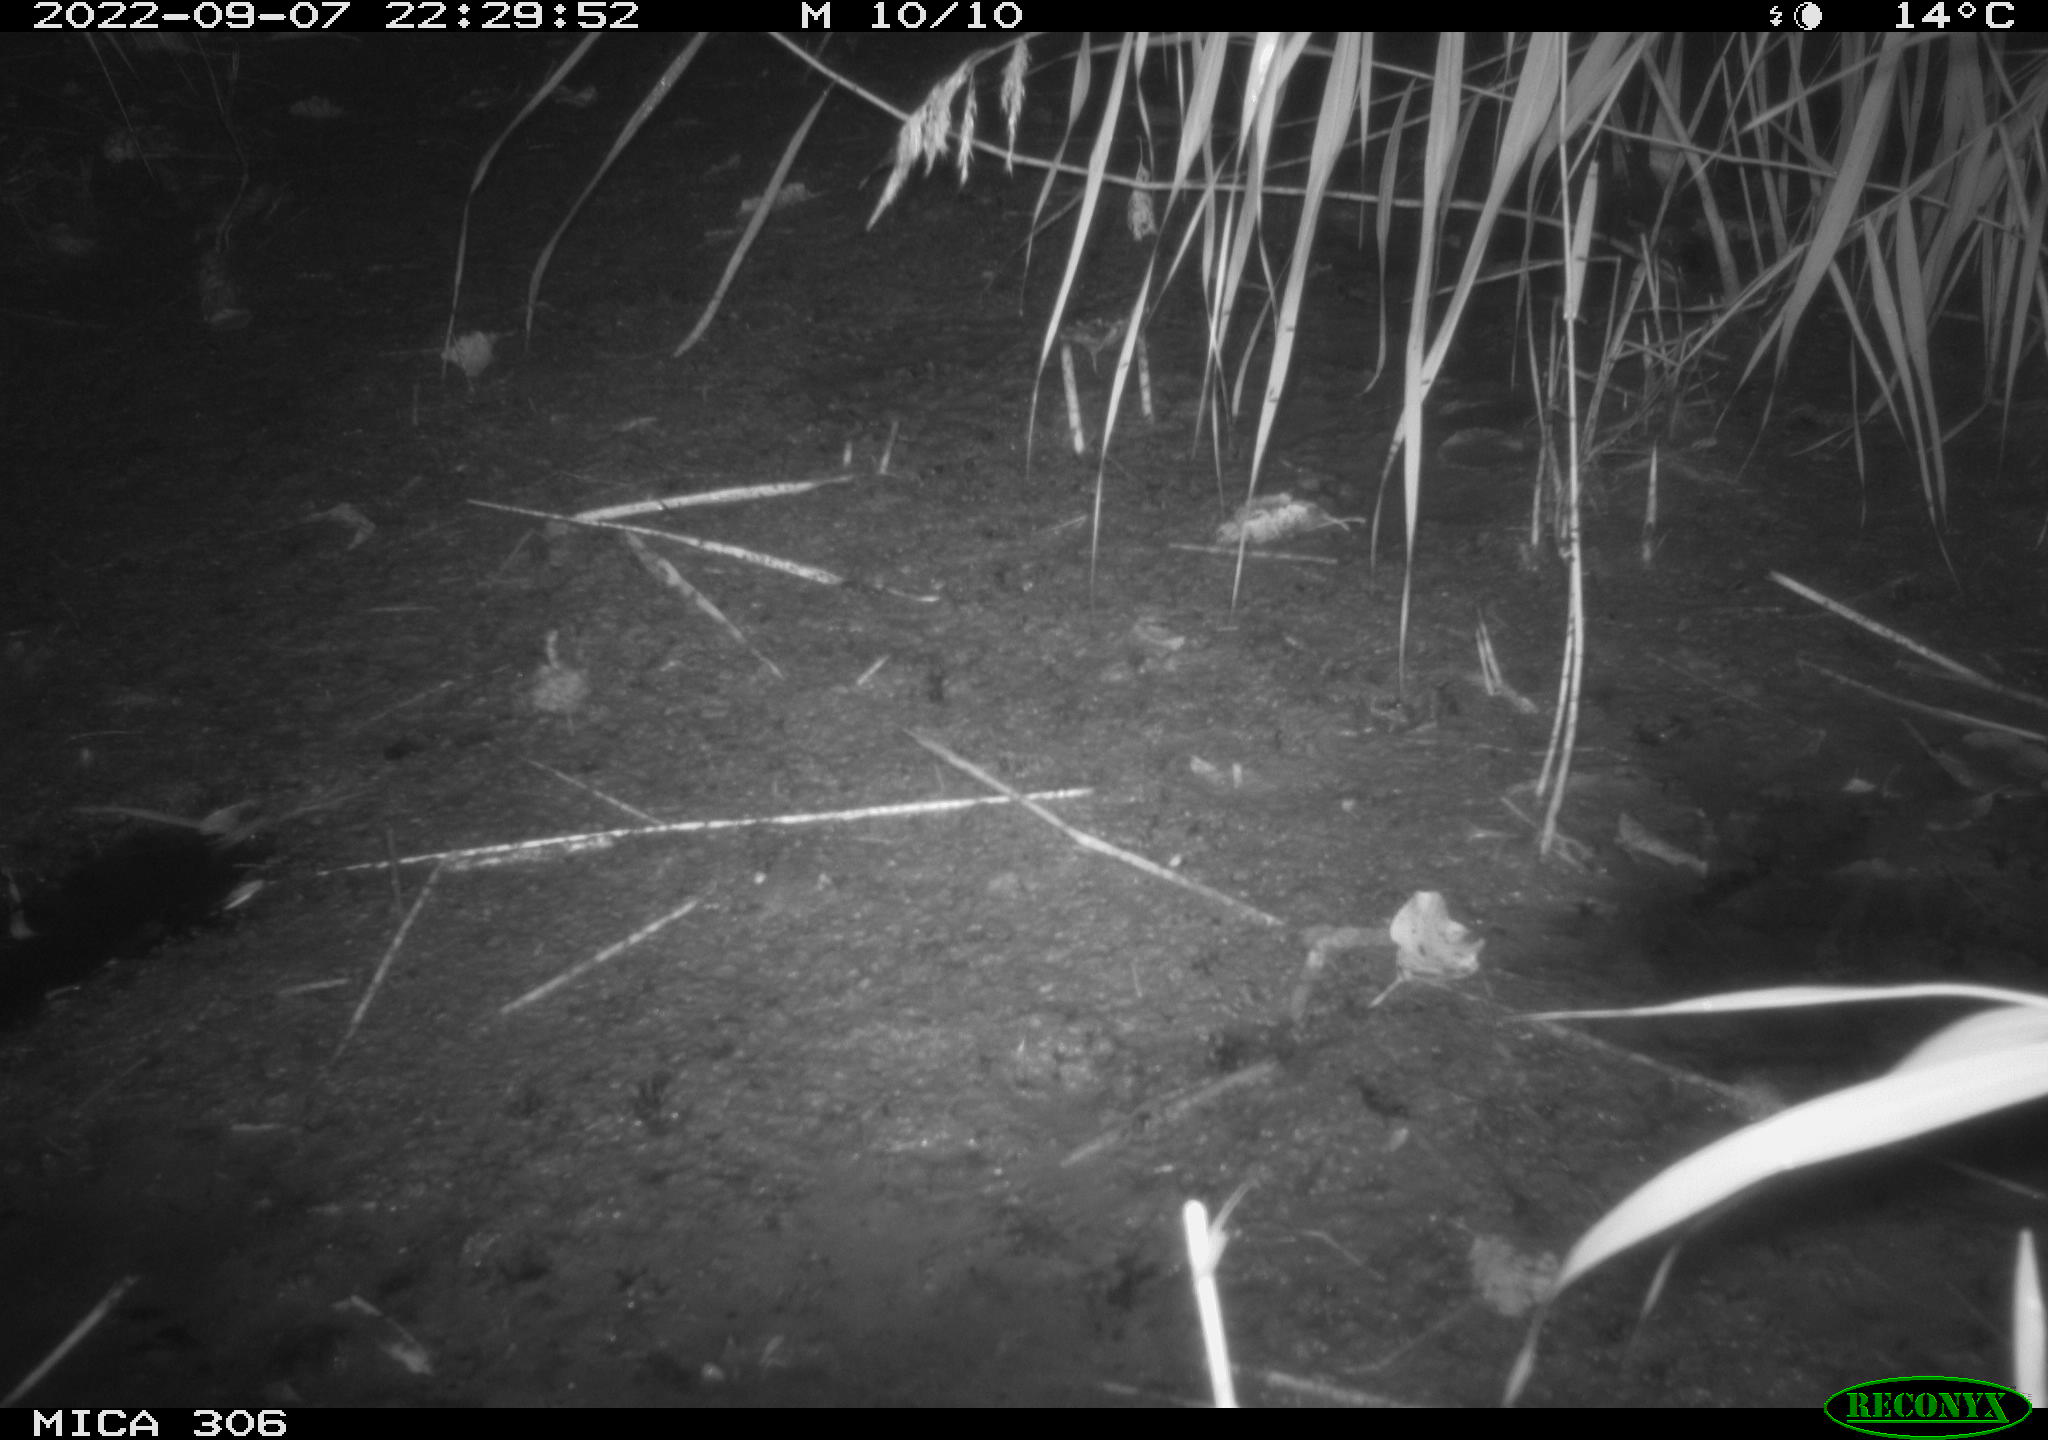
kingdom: Animalia
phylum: Chordata
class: Mammalia
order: Rodentia
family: Muridae
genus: Rattus
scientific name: Rattus norvegicus
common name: Brown rat
